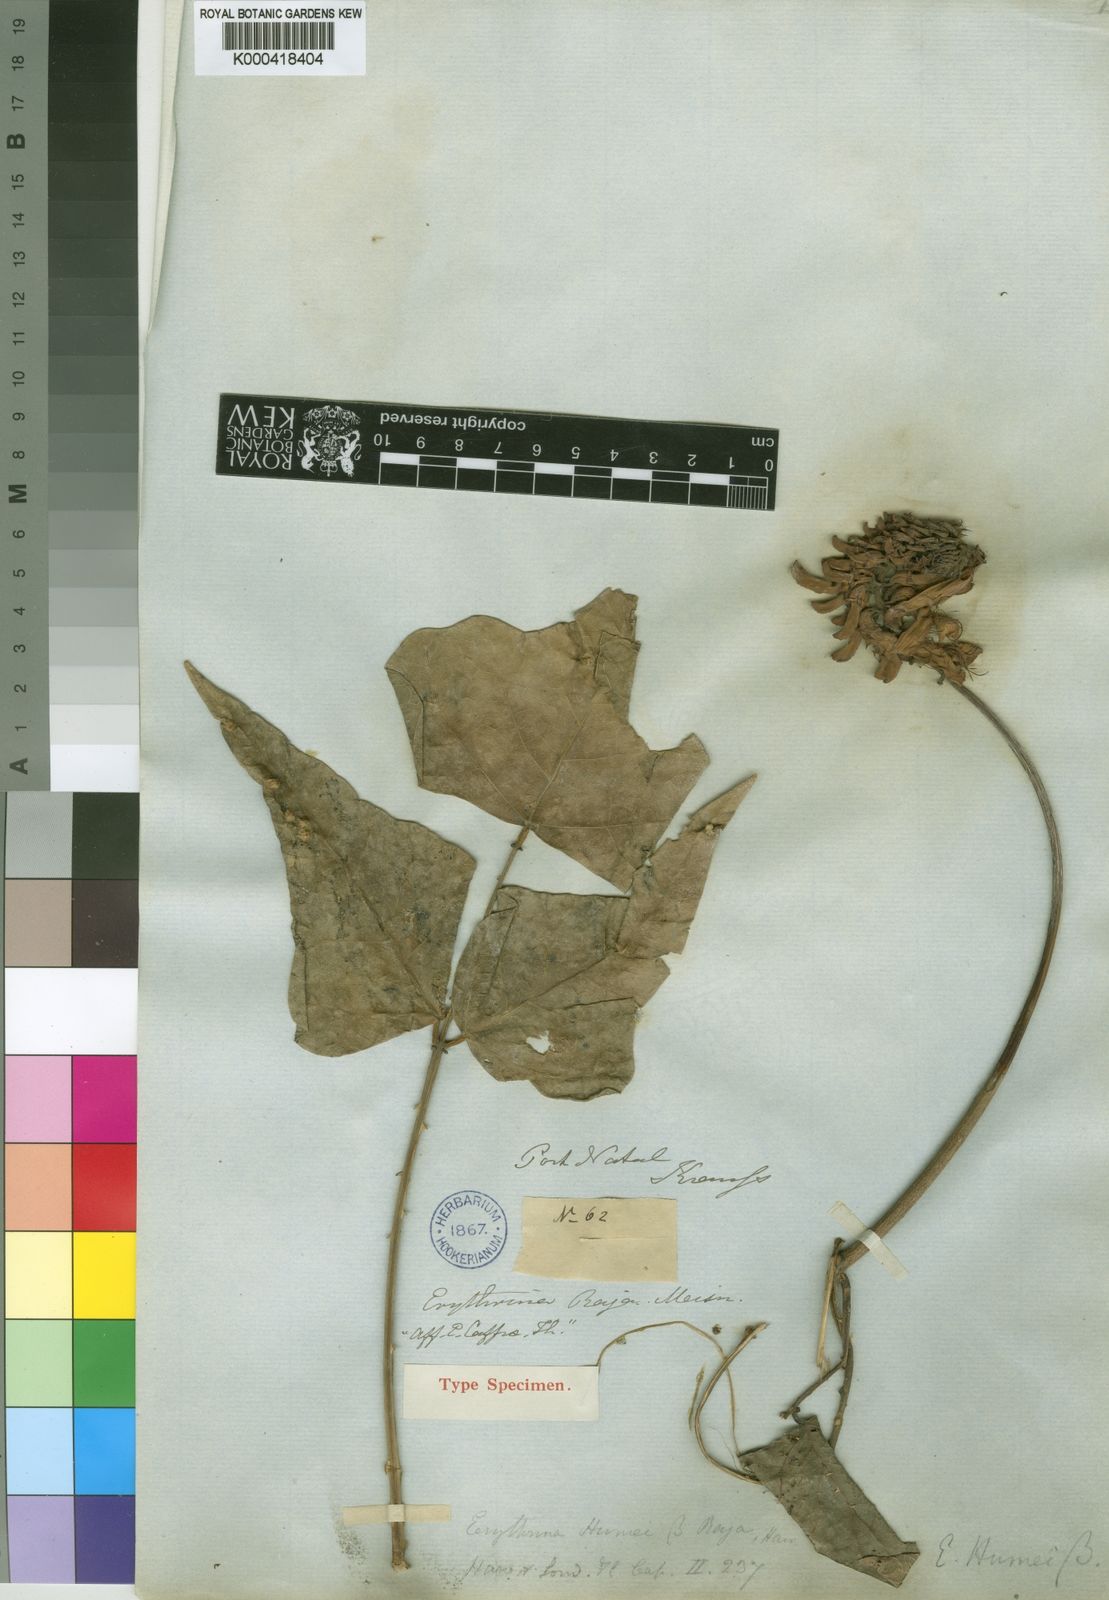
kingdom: Plantae
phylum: Tracheophyta
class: Magnoliopsida
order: Fabales
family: Fabaceae
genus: Erythrina
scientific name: Erythrina humeana
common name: Dwarf coral tree
